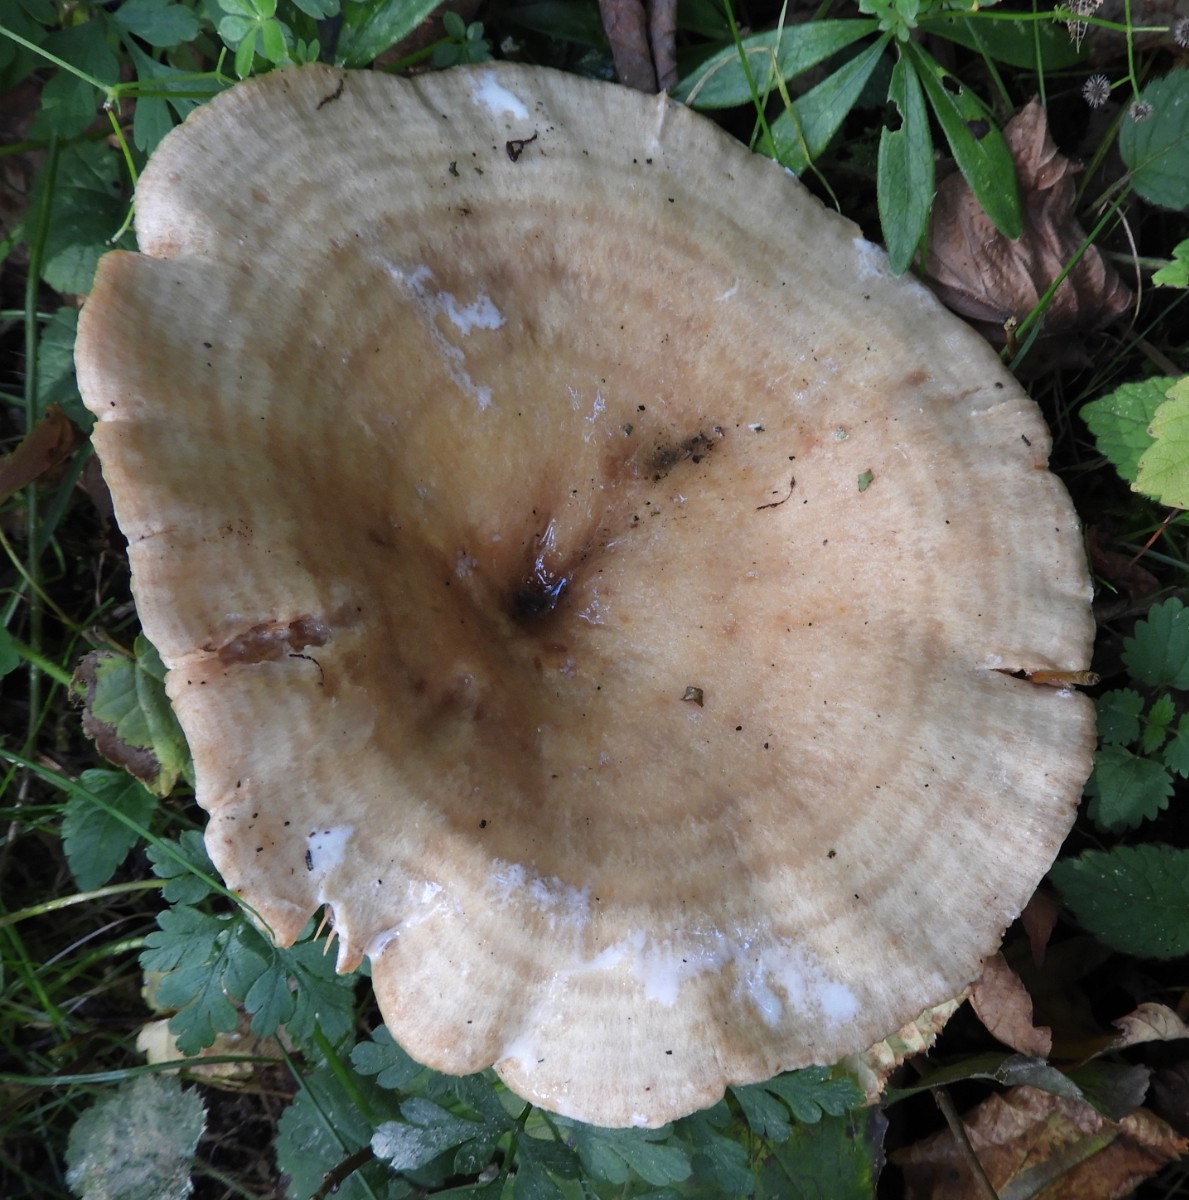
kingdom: Fungi
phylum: Basidiomycota
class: Agaricomycetes
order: Russulales
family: Russulaceae
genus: Lactarius
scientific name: Lactarius pyrogalus
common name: hassel-mælkehat
